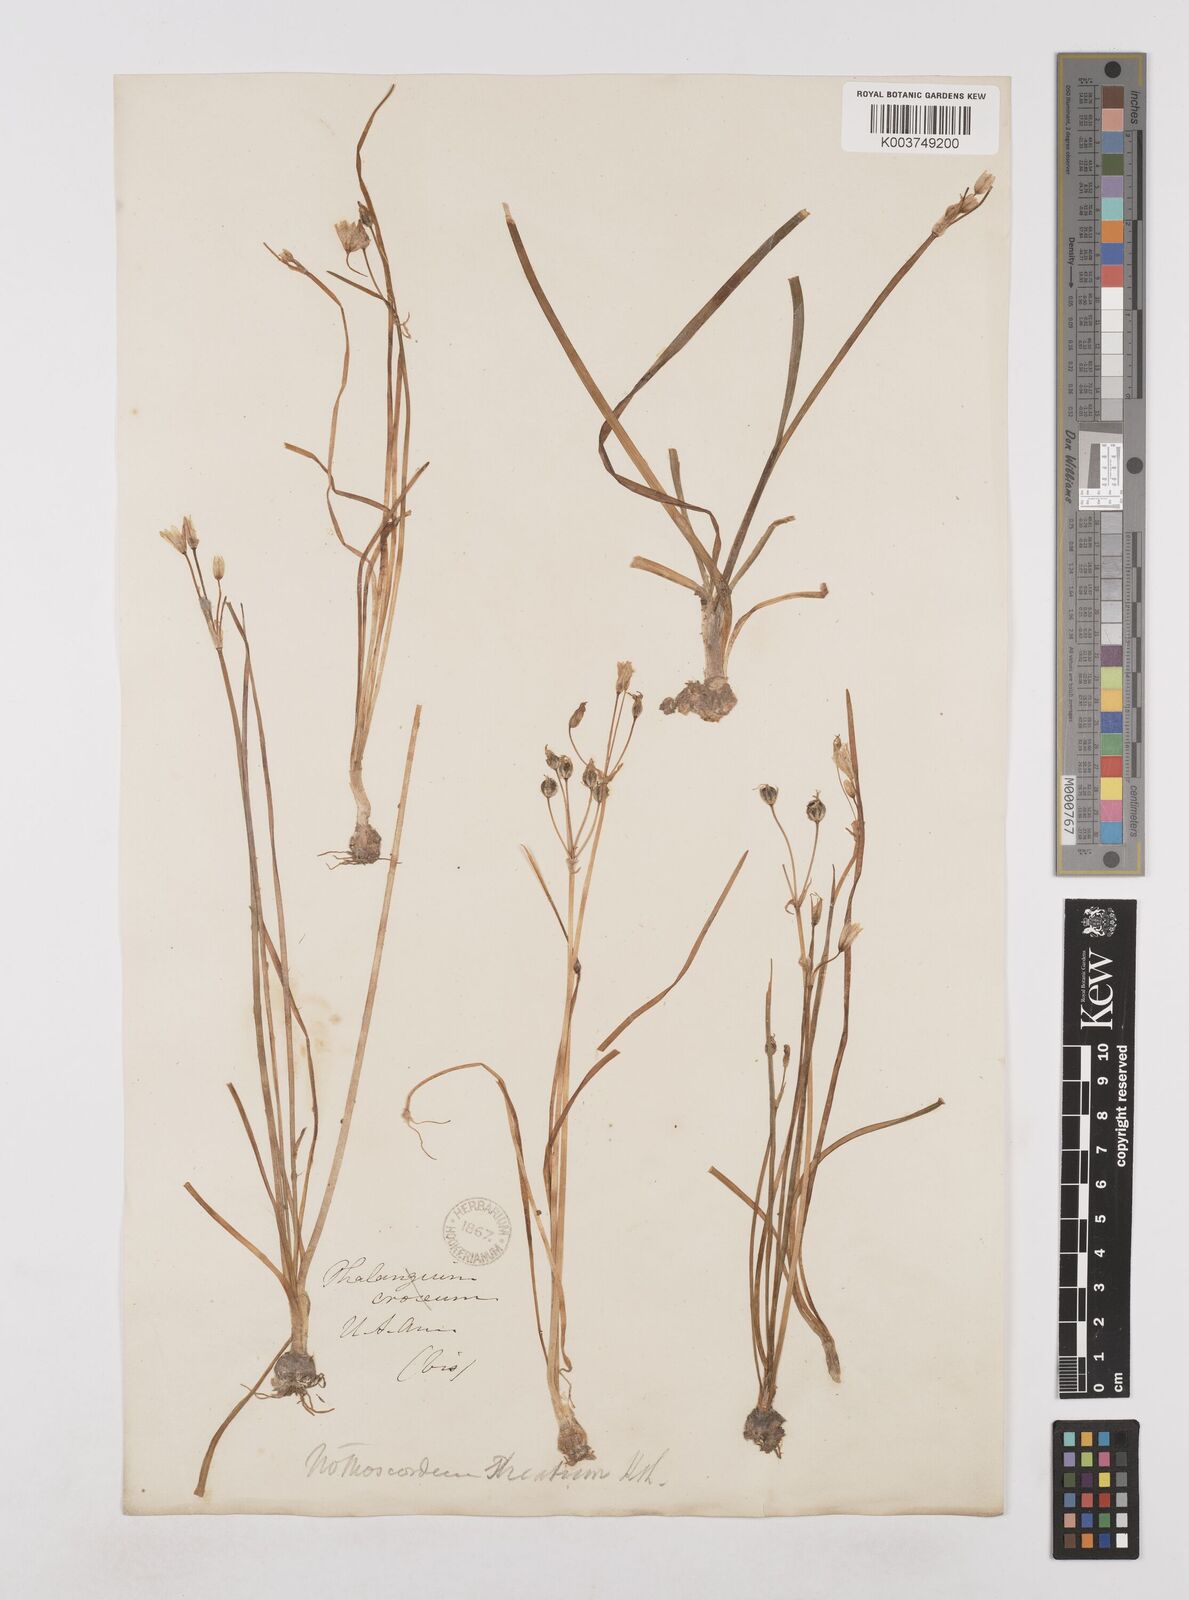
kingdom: Plantae
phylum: Tracheophyta
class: Liliopsida
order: Asparagales
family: Amaryllidaceae
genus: Nothoscordum
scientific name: Nothoscordum bivalve
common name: Crow-poison
